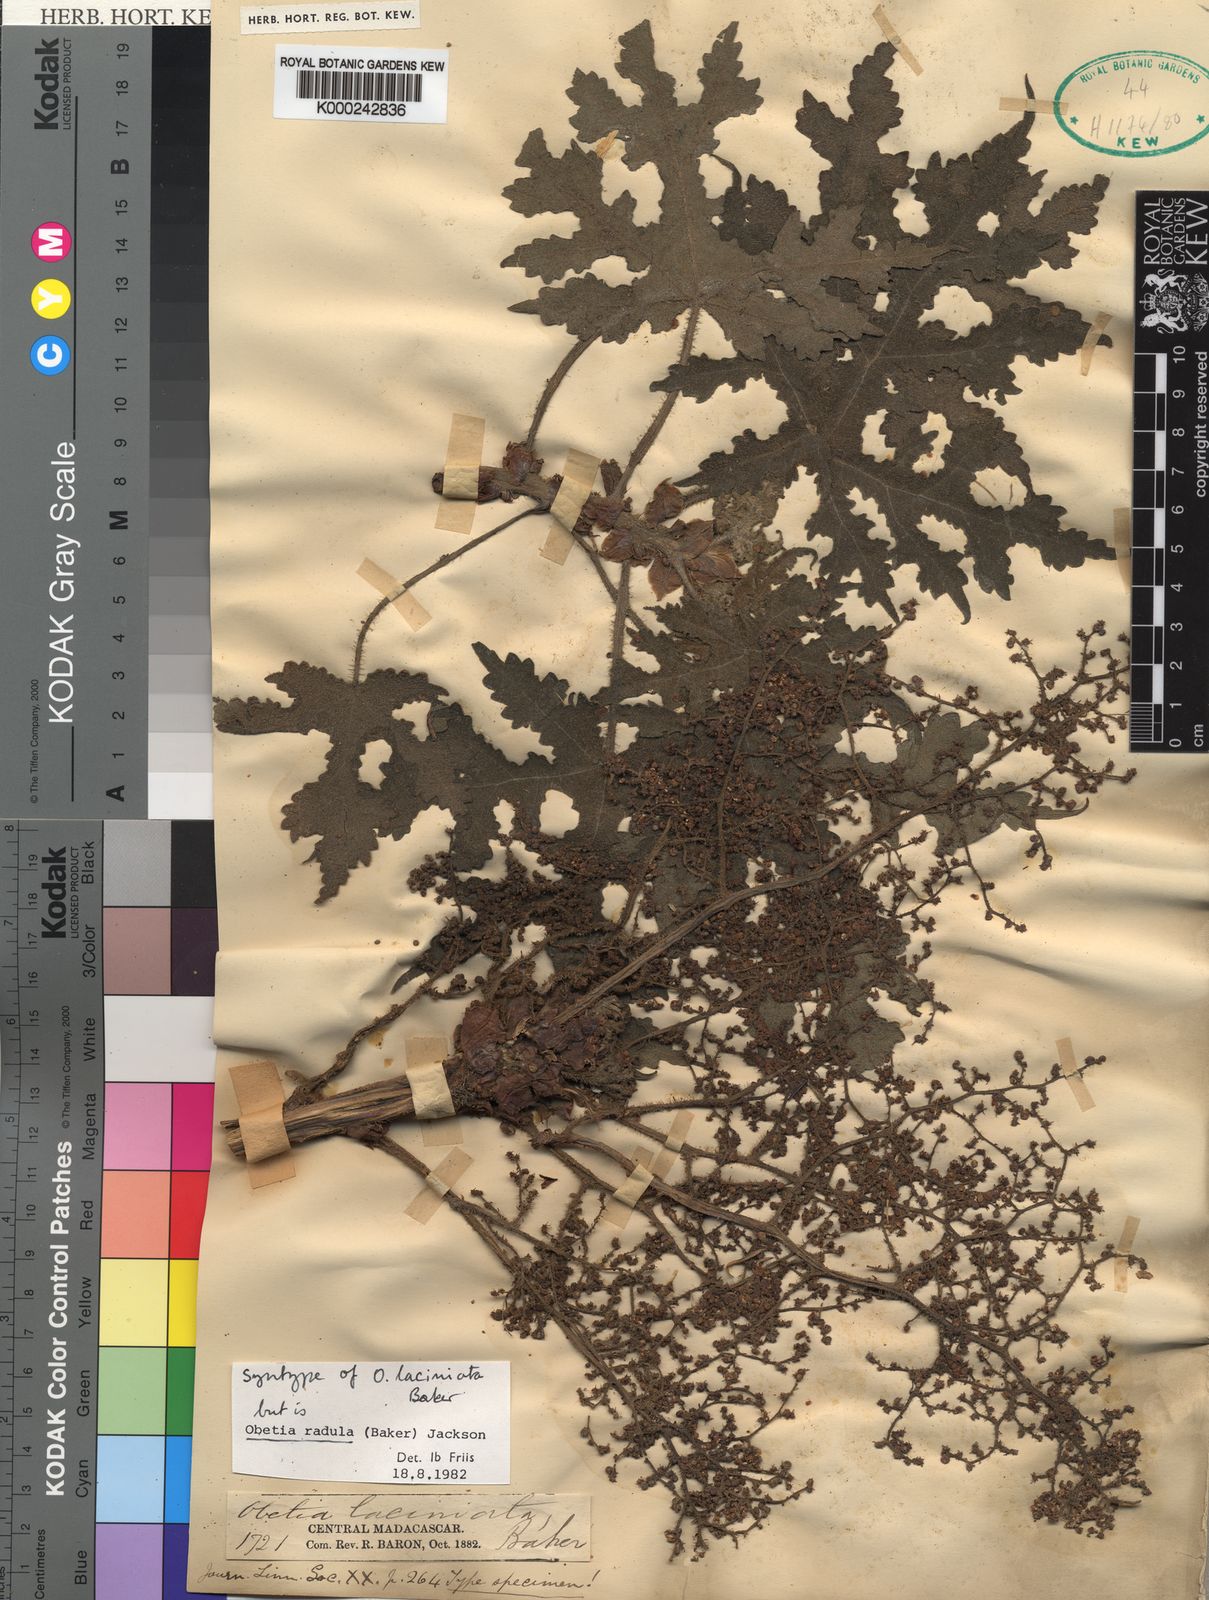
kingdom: Plantae
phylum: Tracheophyta
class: Magnoliopsida
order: Rosales
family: Urticaceae
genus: Obetia
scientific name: Obetia radula
